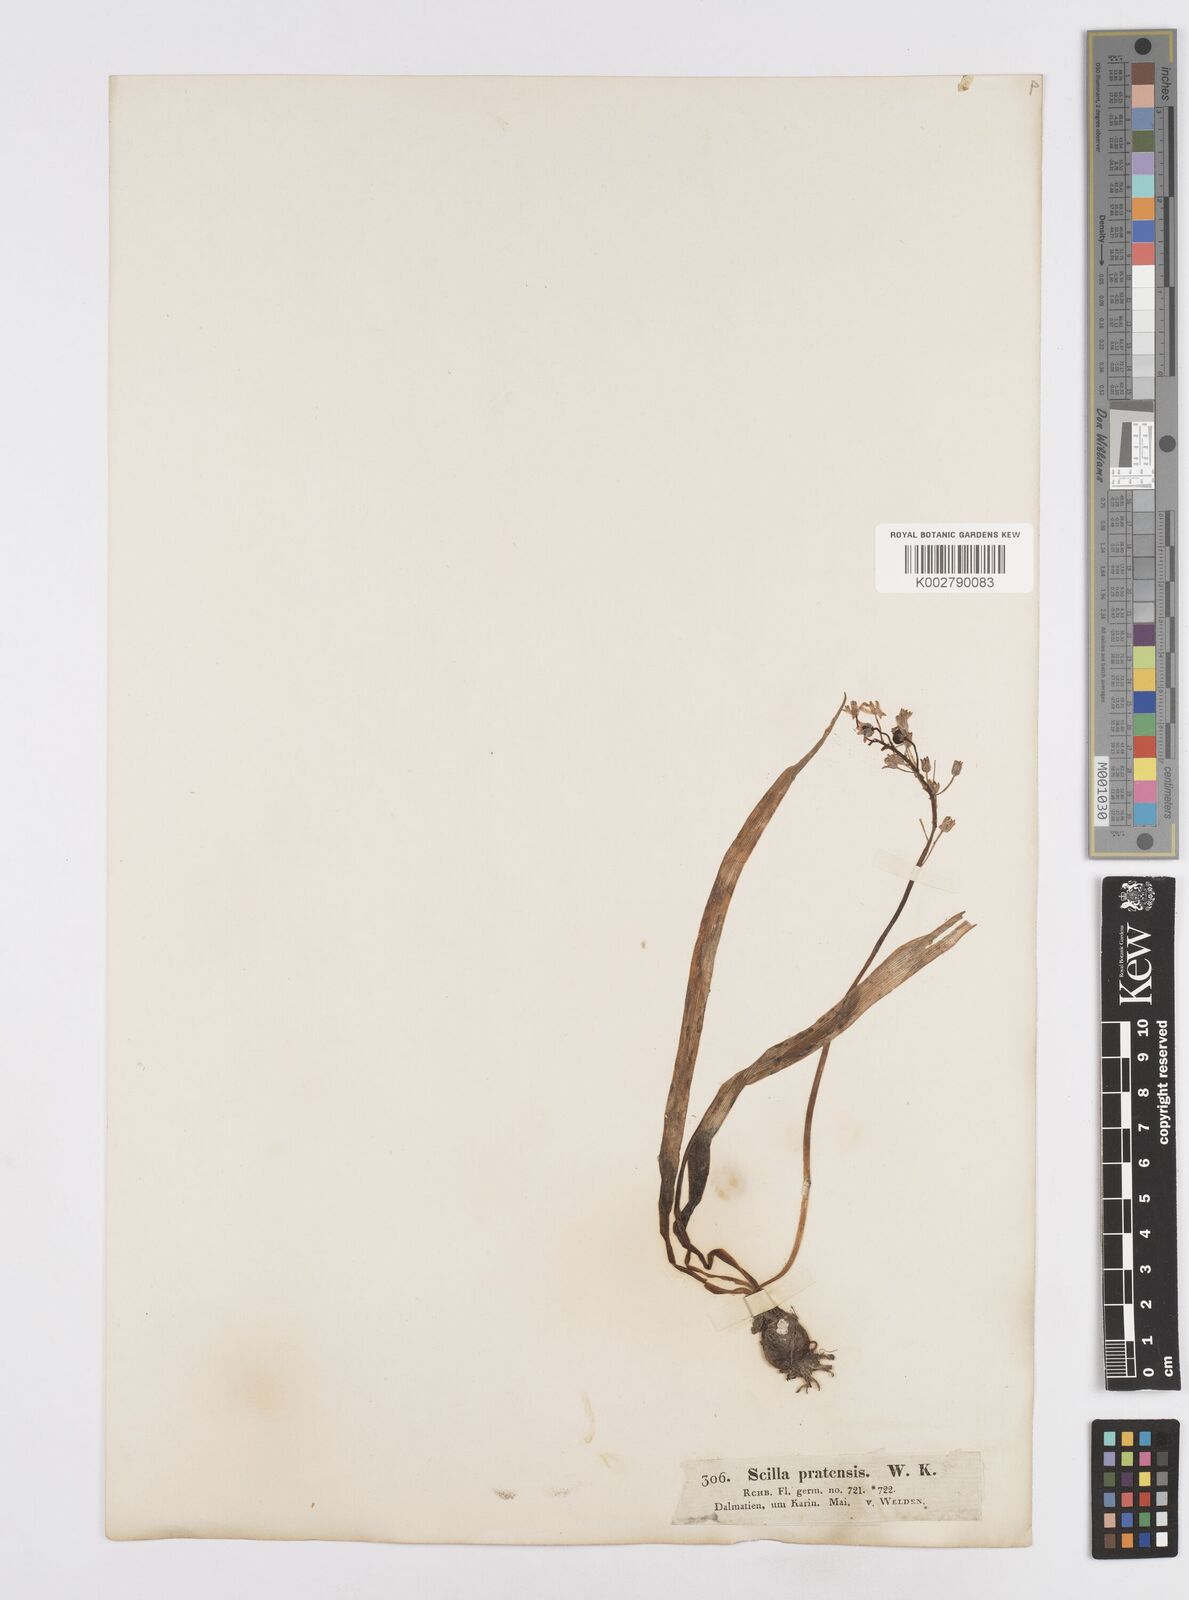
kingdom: Plantae
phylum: Tracheophyta
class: Liliopsida
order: Asparagales
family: Asparagaceae
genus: Scilla
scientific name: Scilla litardierei
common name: Amethyst meadow squill
